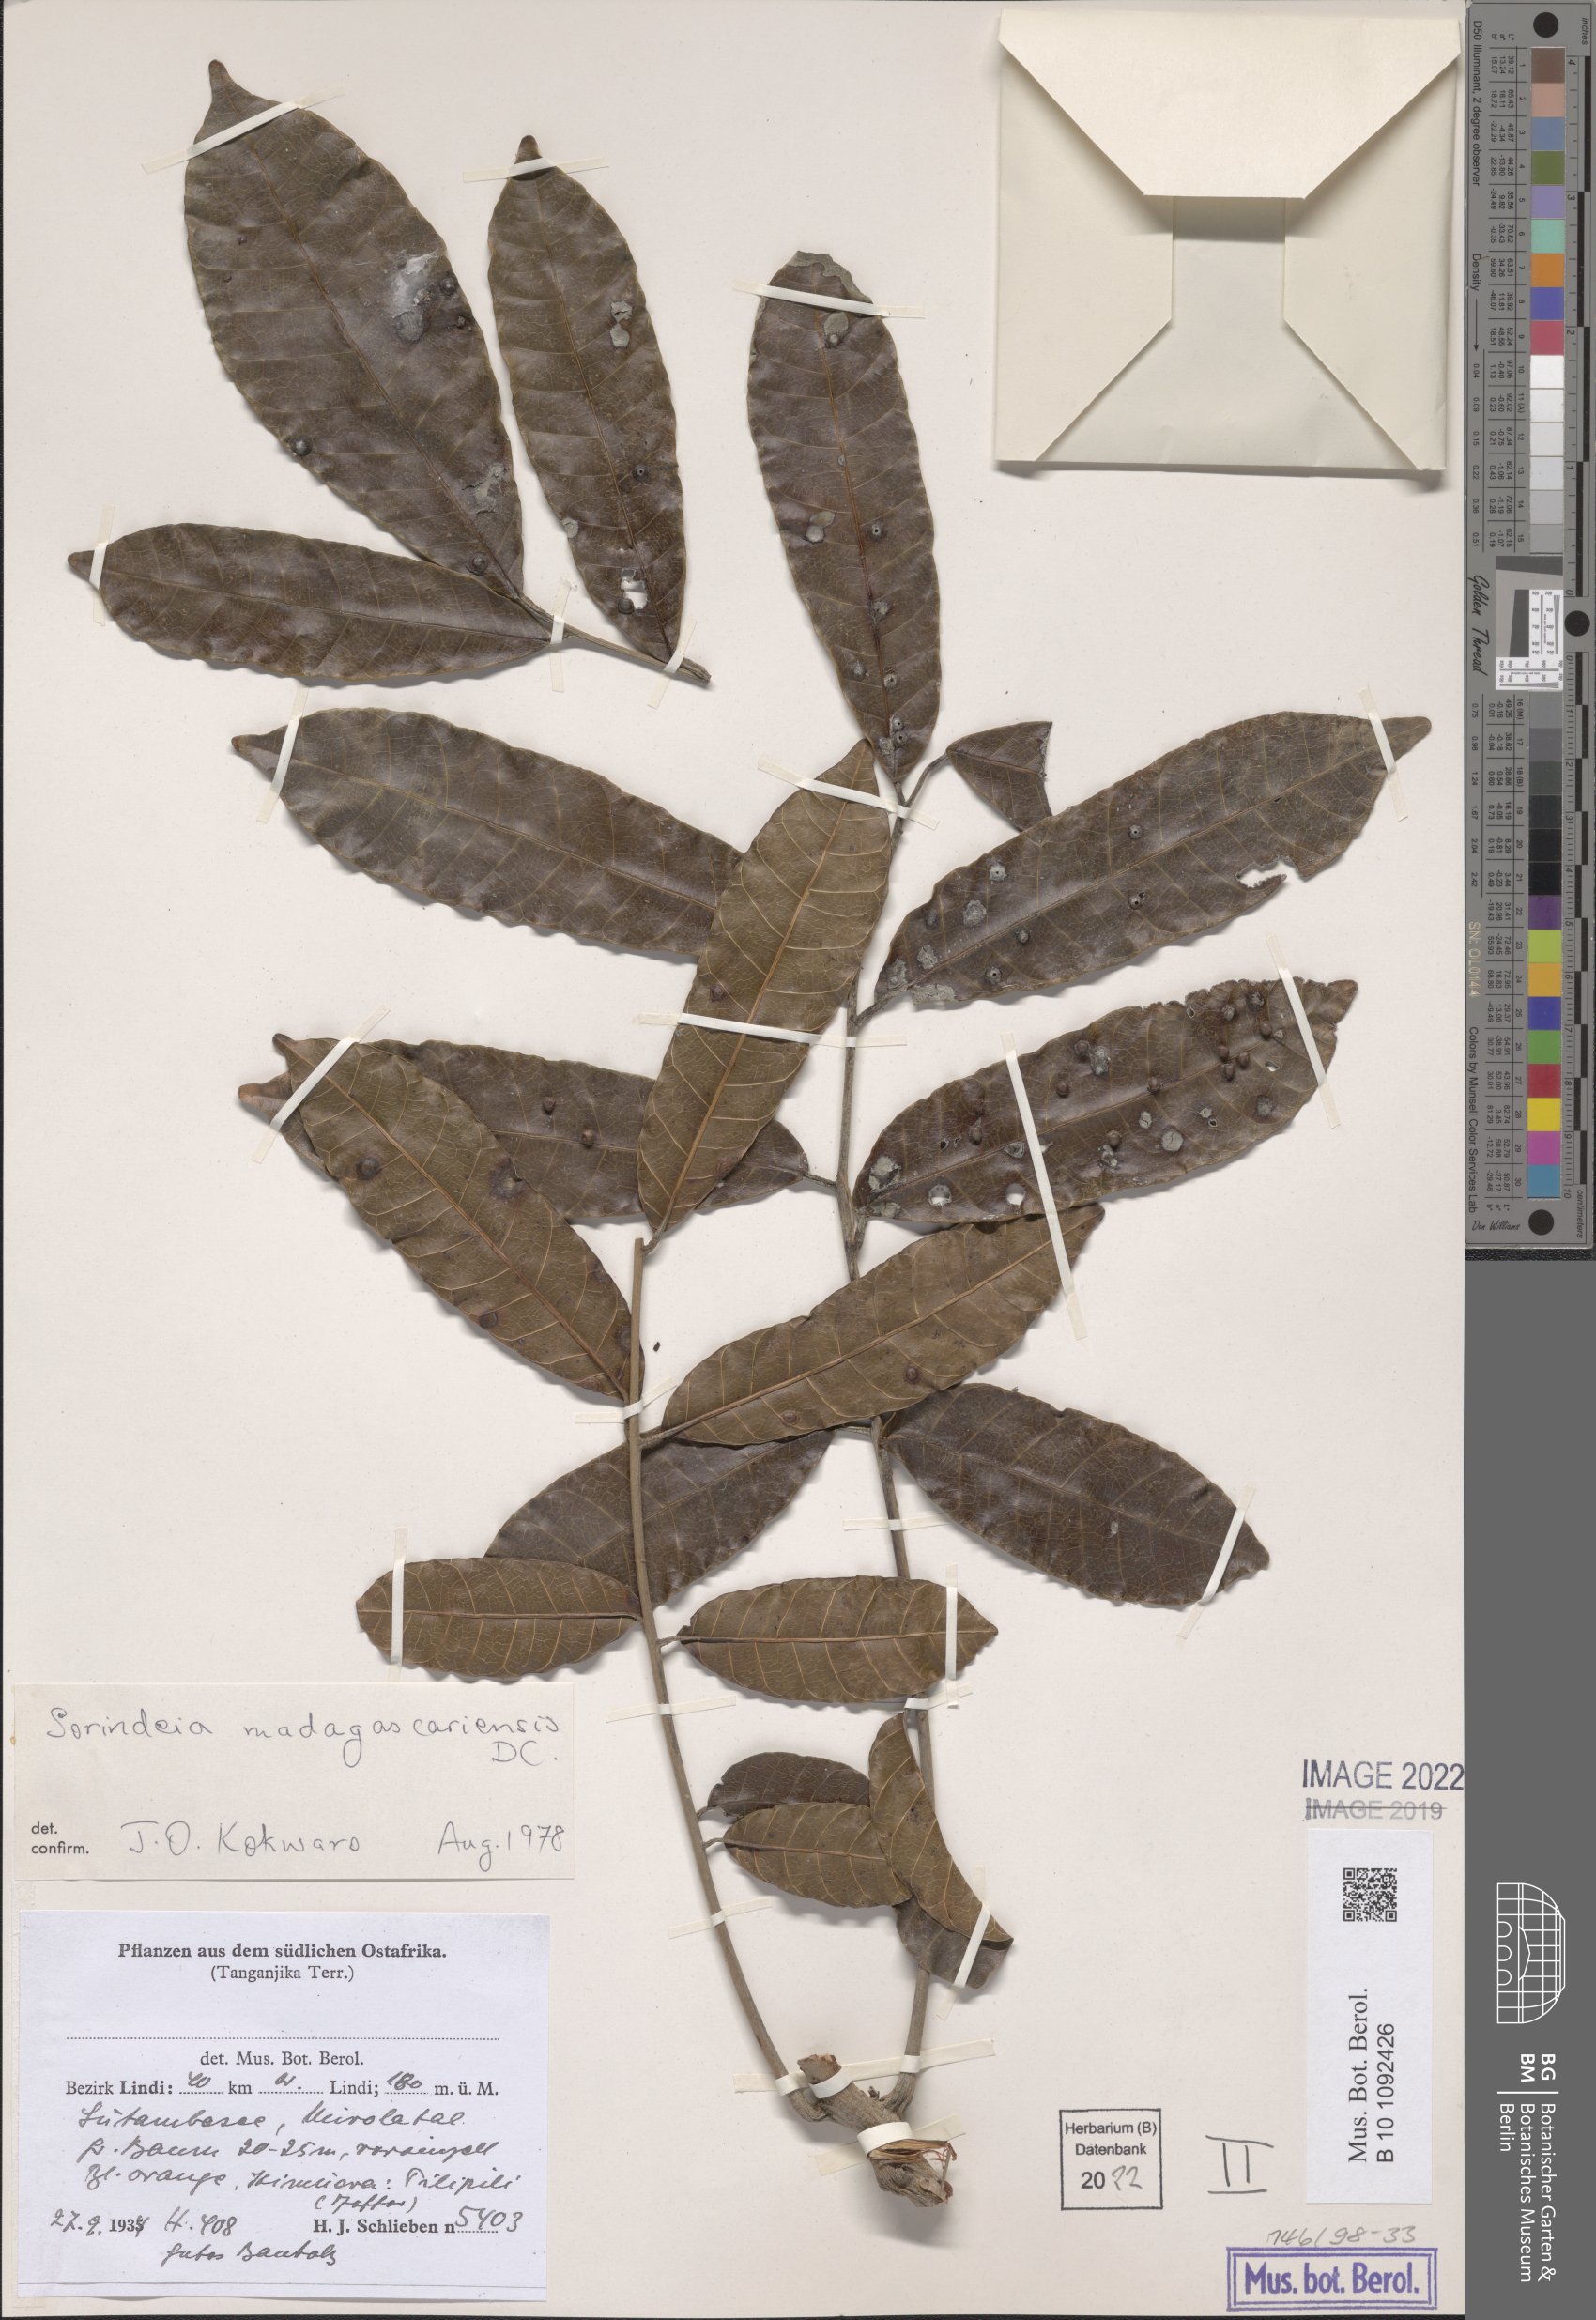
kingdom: Plantae
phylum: Tracheophyta
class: Magnoliopsida
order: Sapindales
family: Anacardiaceae
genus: Sorindeia
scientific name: Sorindeia madagascariensis
